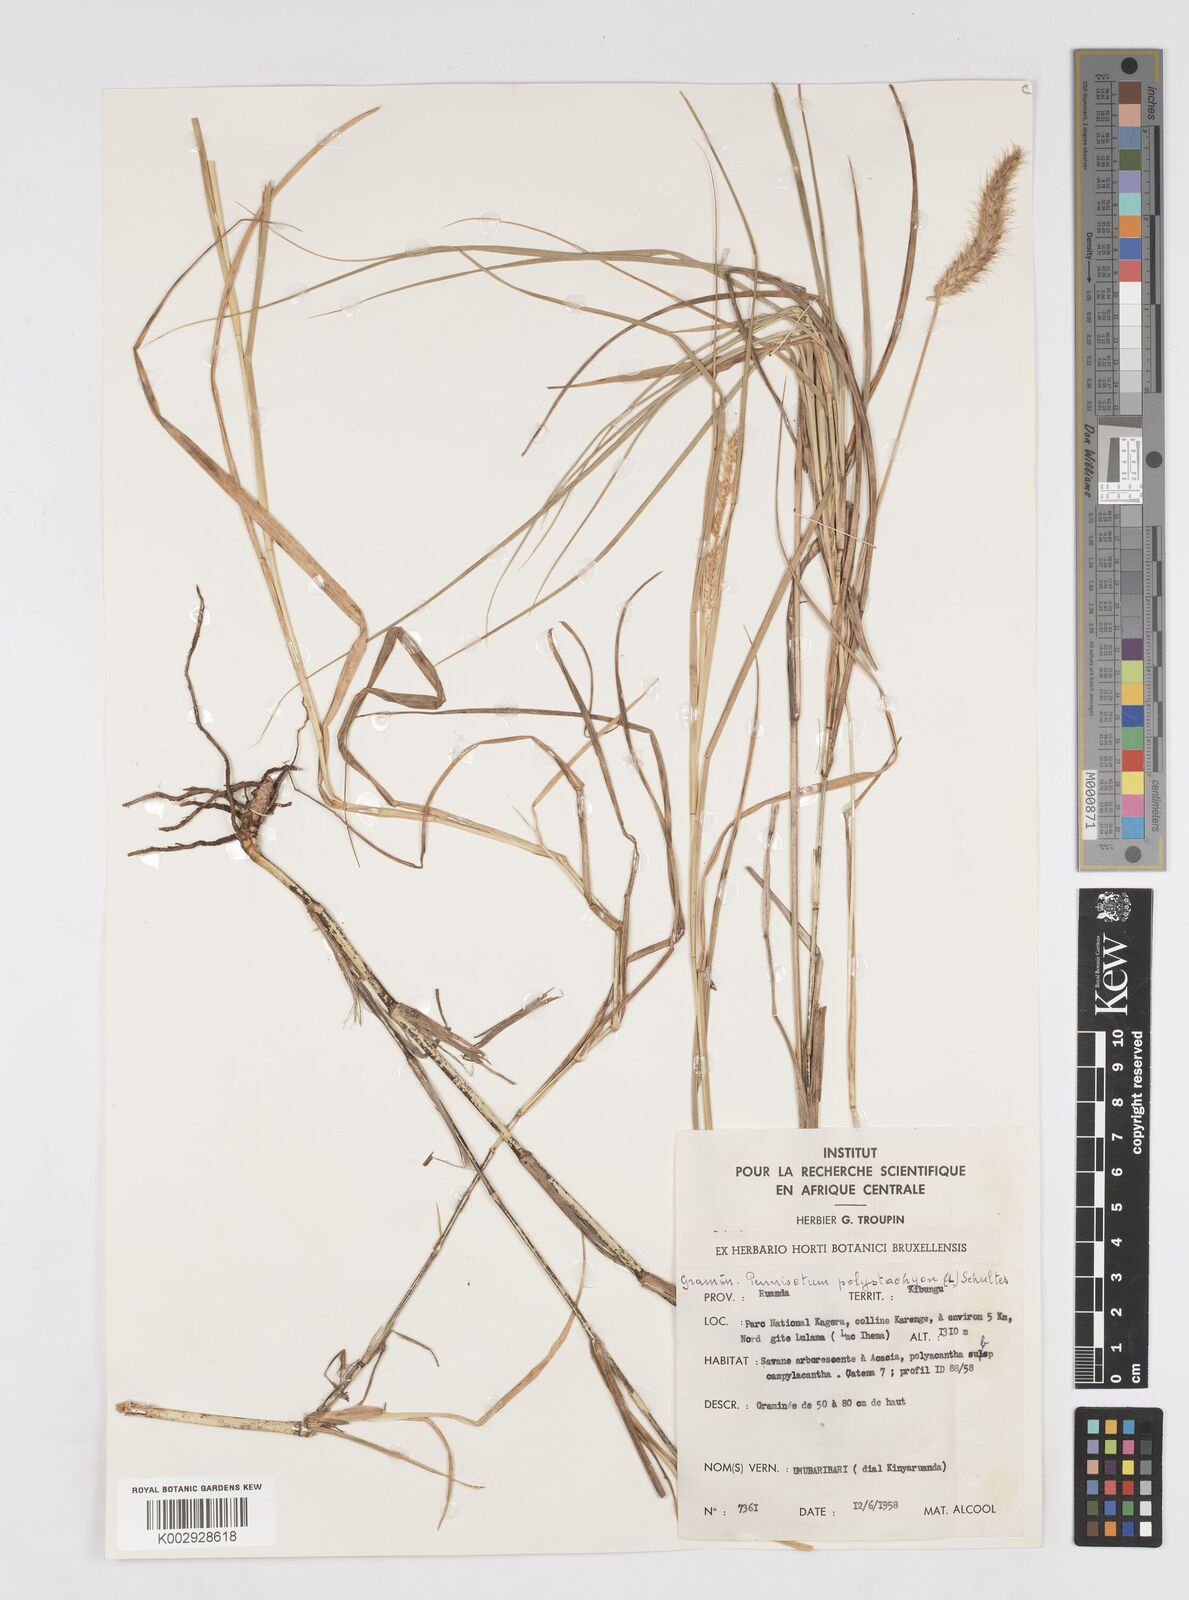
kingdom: Plantae
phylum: Tracheophyta
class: Liliopsida
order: Poales
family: Poaceae
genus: Cenchrus
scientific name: Cenchrus ciliaris
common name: Buffelgrass
